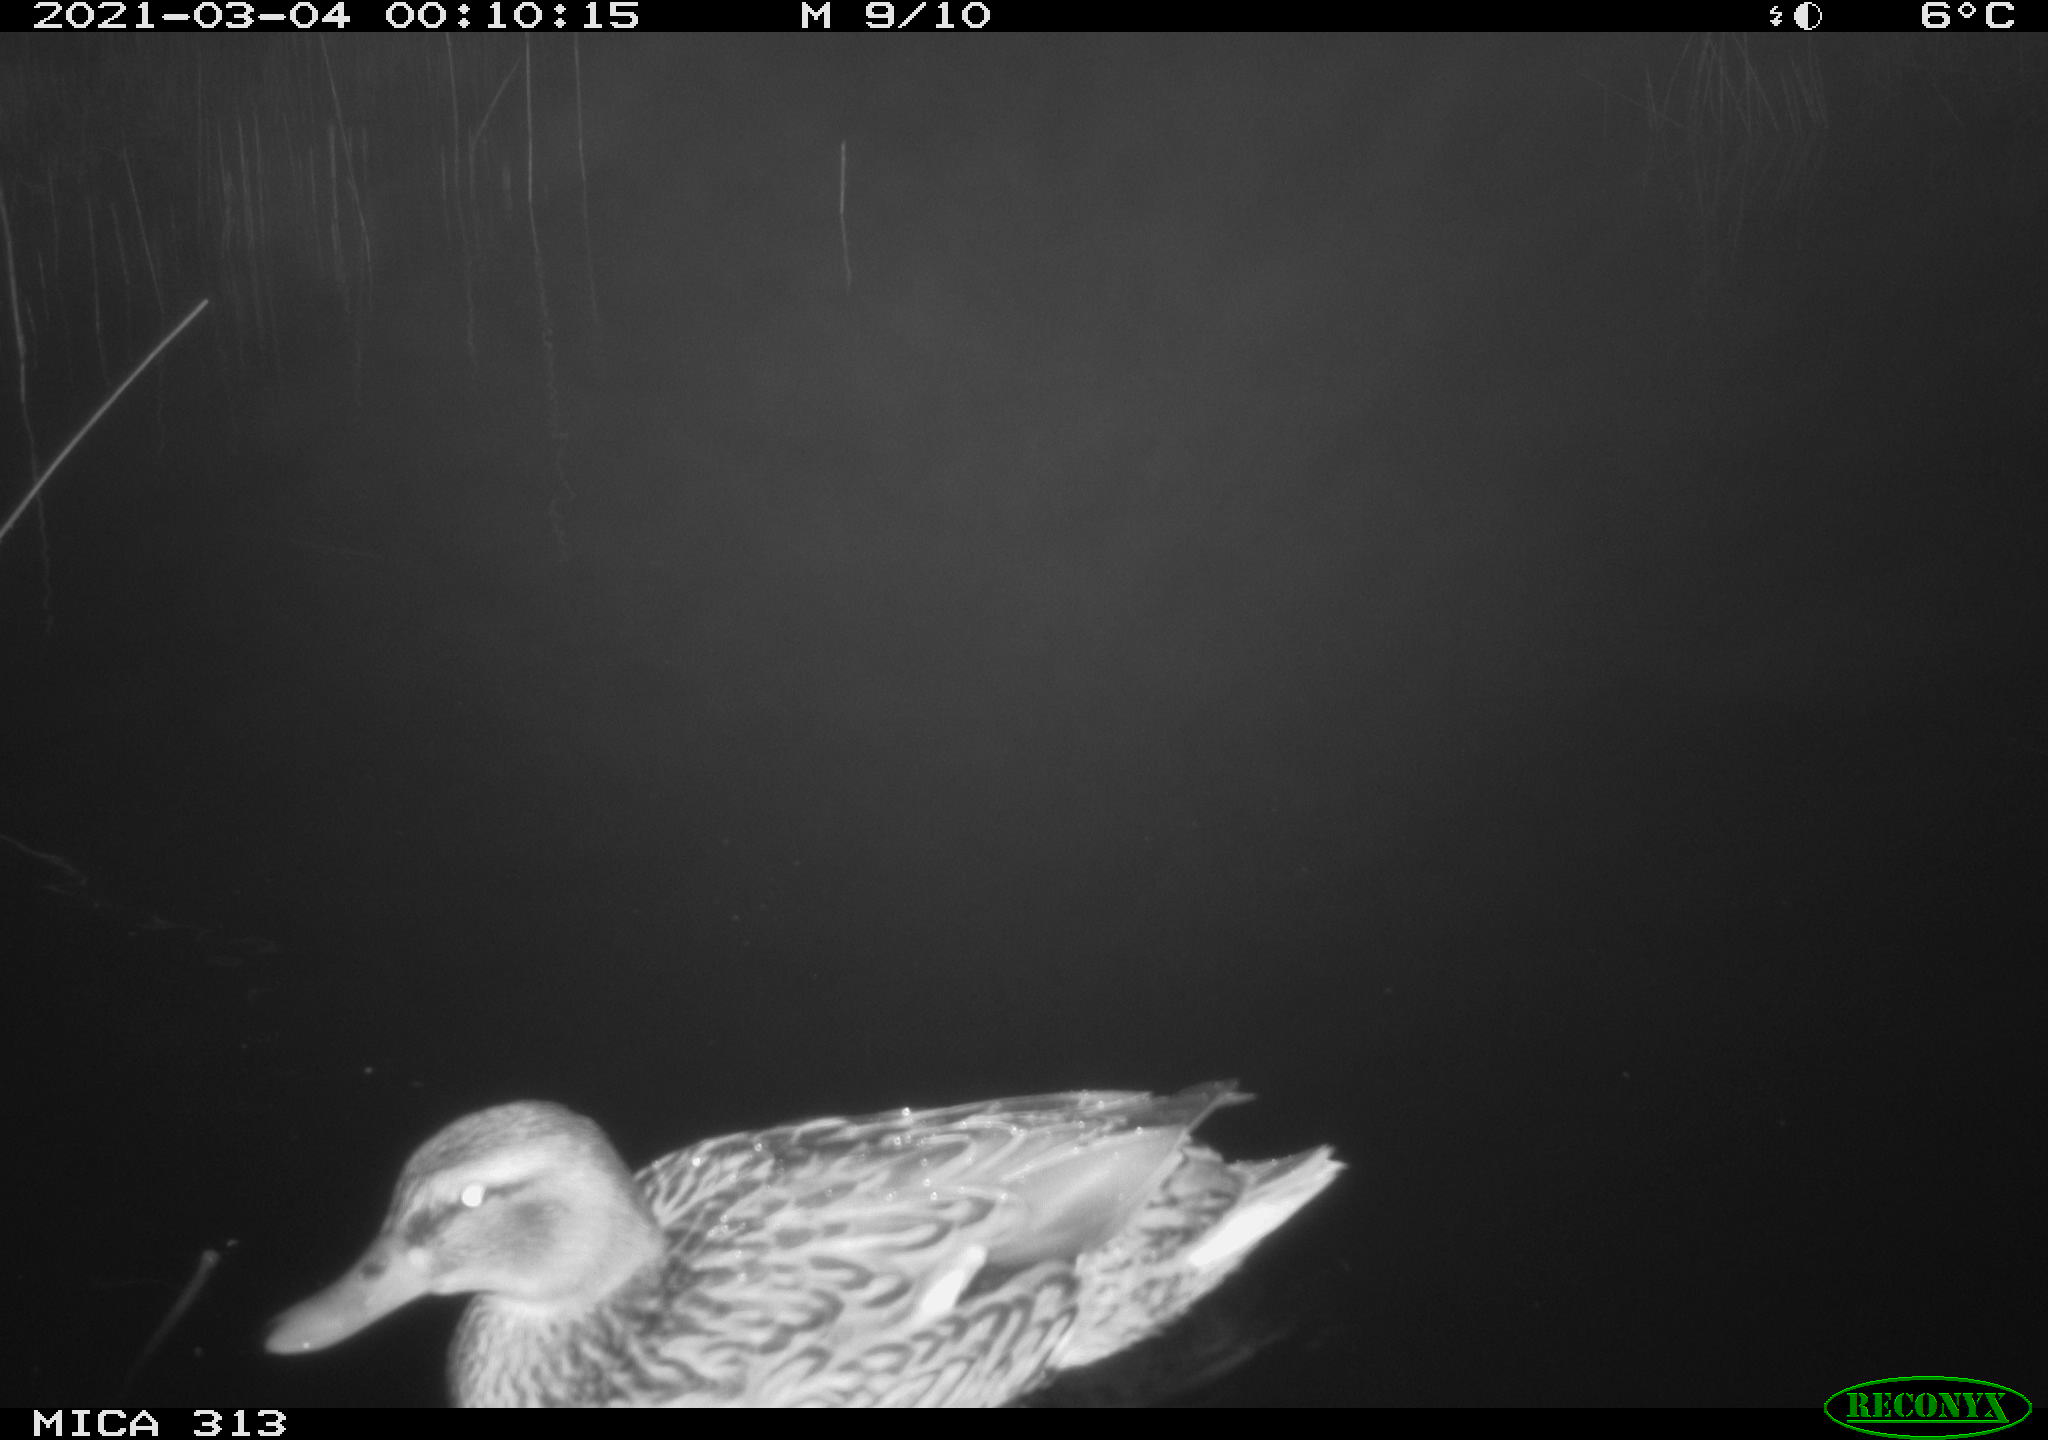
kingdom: Animalia
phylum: Chordata
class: Aves
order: Anseriformes
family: Anatidae
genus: Anas
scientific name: Anas platyrhynchos
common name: Mallard
